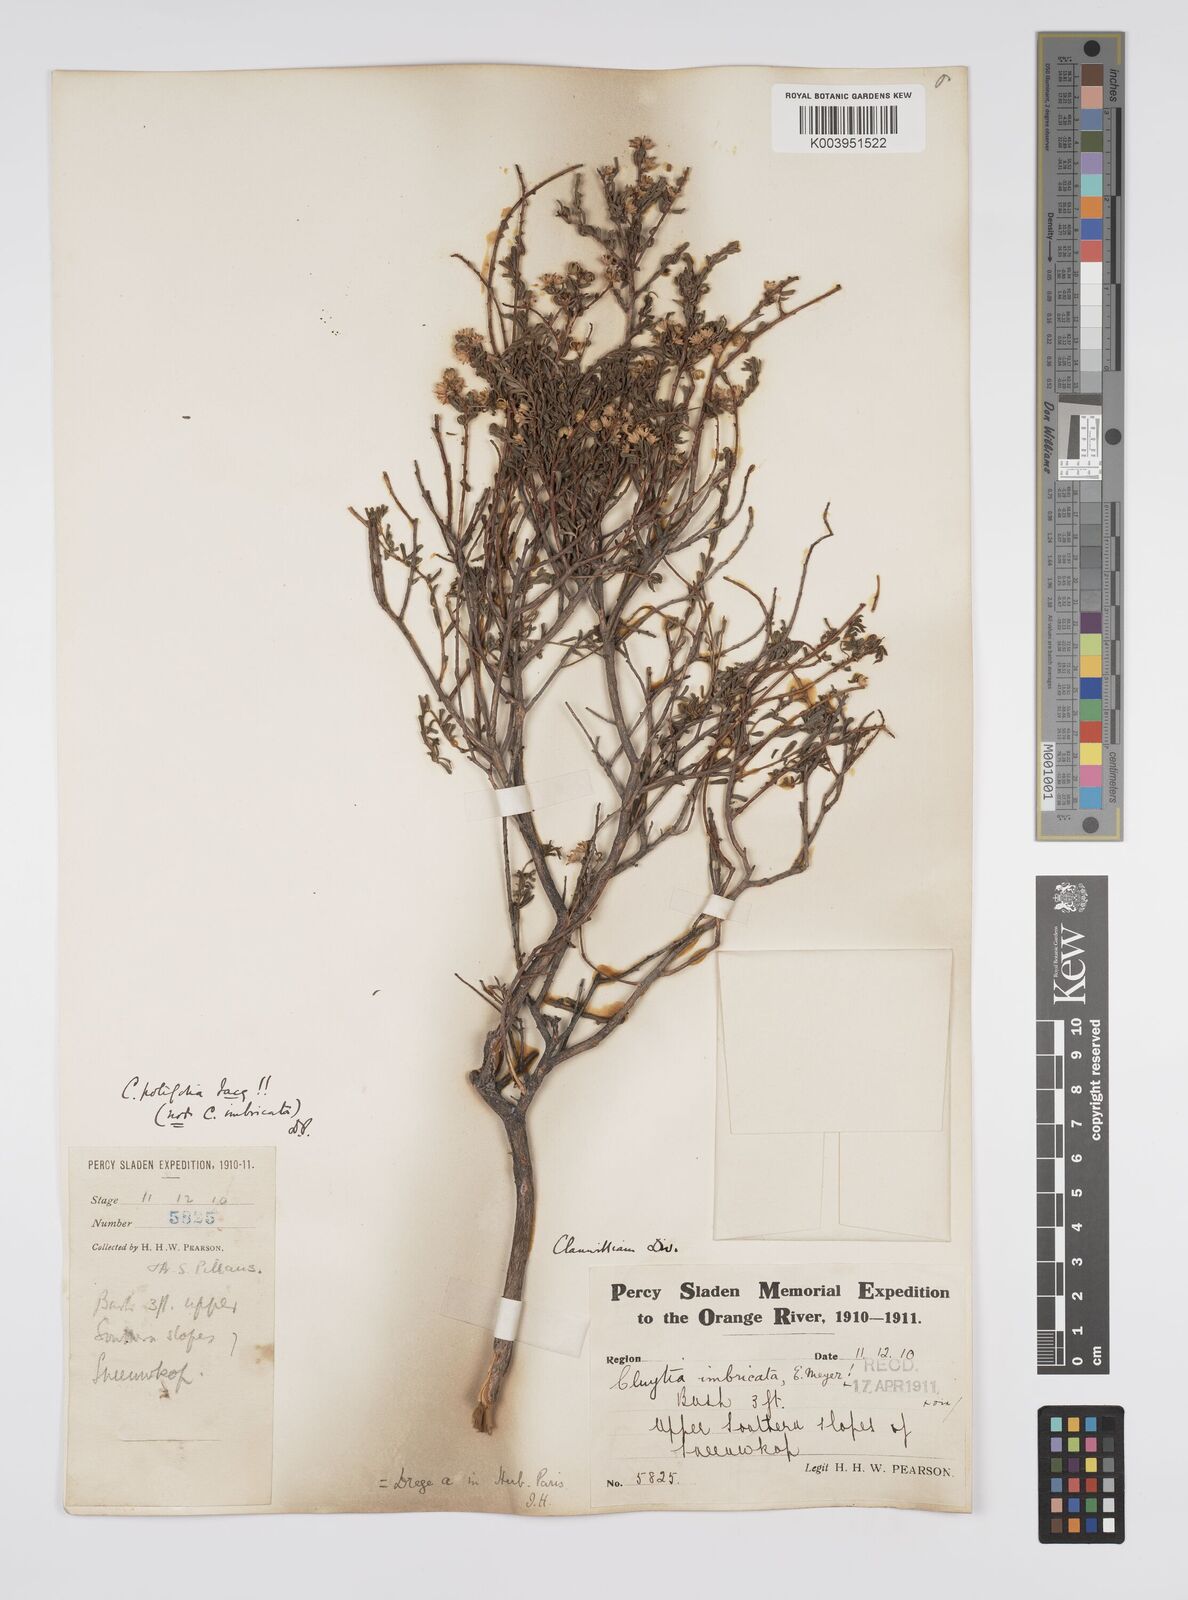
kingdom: Plantae
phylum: Tracheophyta
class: Magnoliopsida
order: Malpighiales
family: Peraceae
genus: Clutia
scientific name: Clutia
